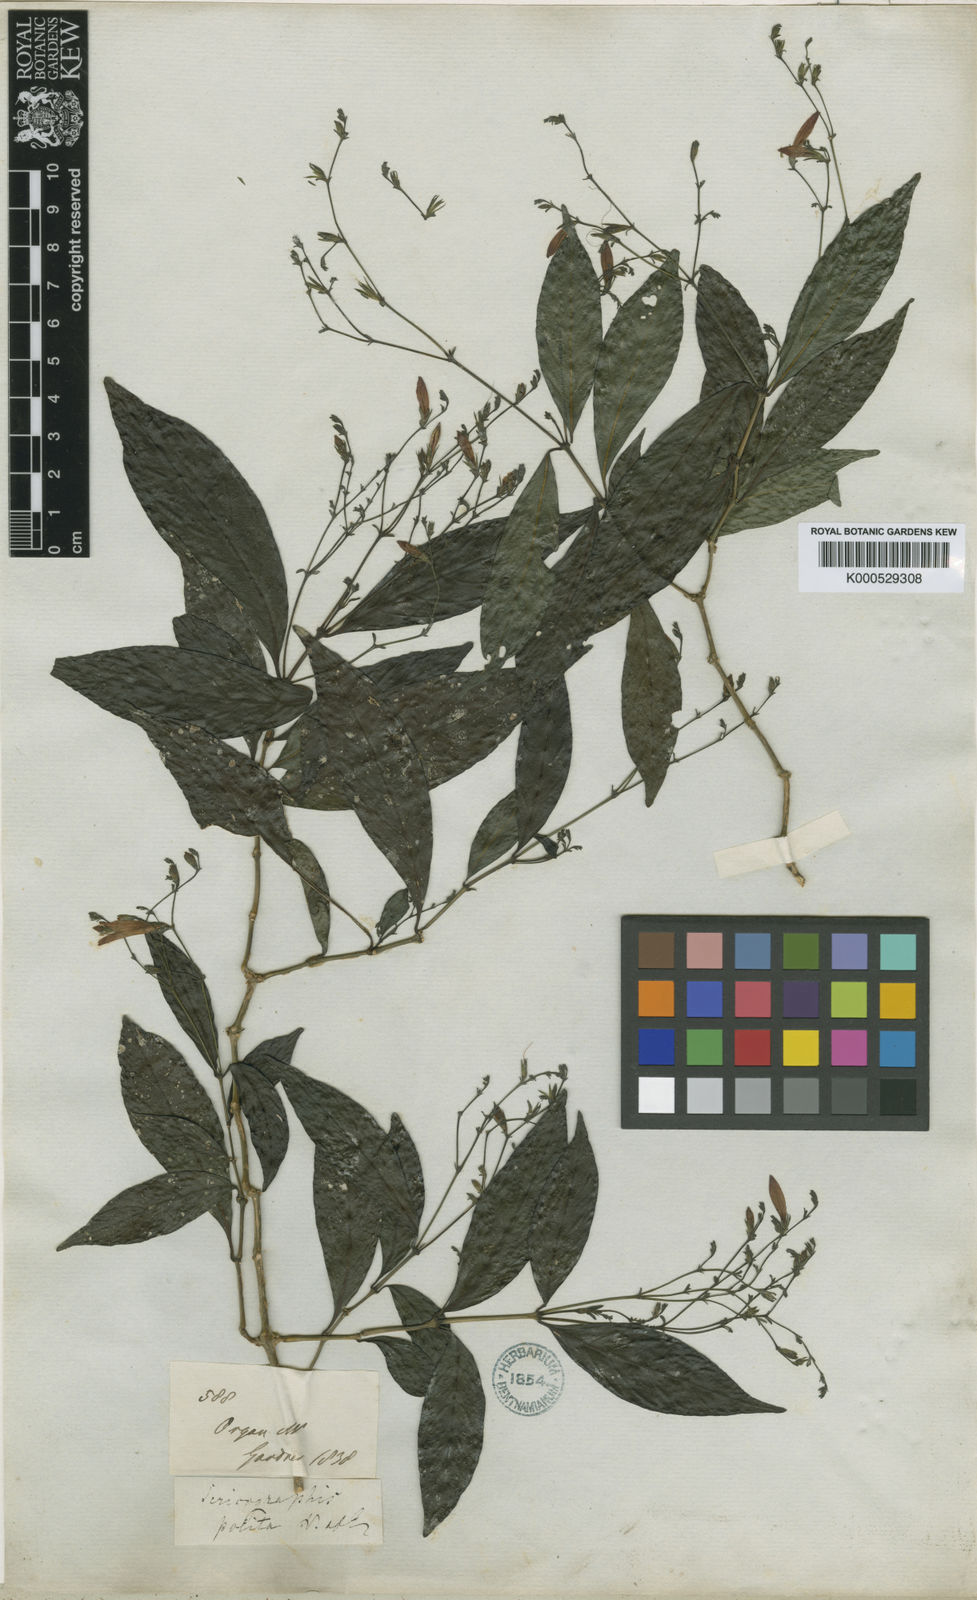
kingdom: Plantae
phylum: Tracheophyta
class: Magnoliopsida
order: Lamiales
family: Acanthaceae
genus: Justicia
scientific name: Justicia polita
